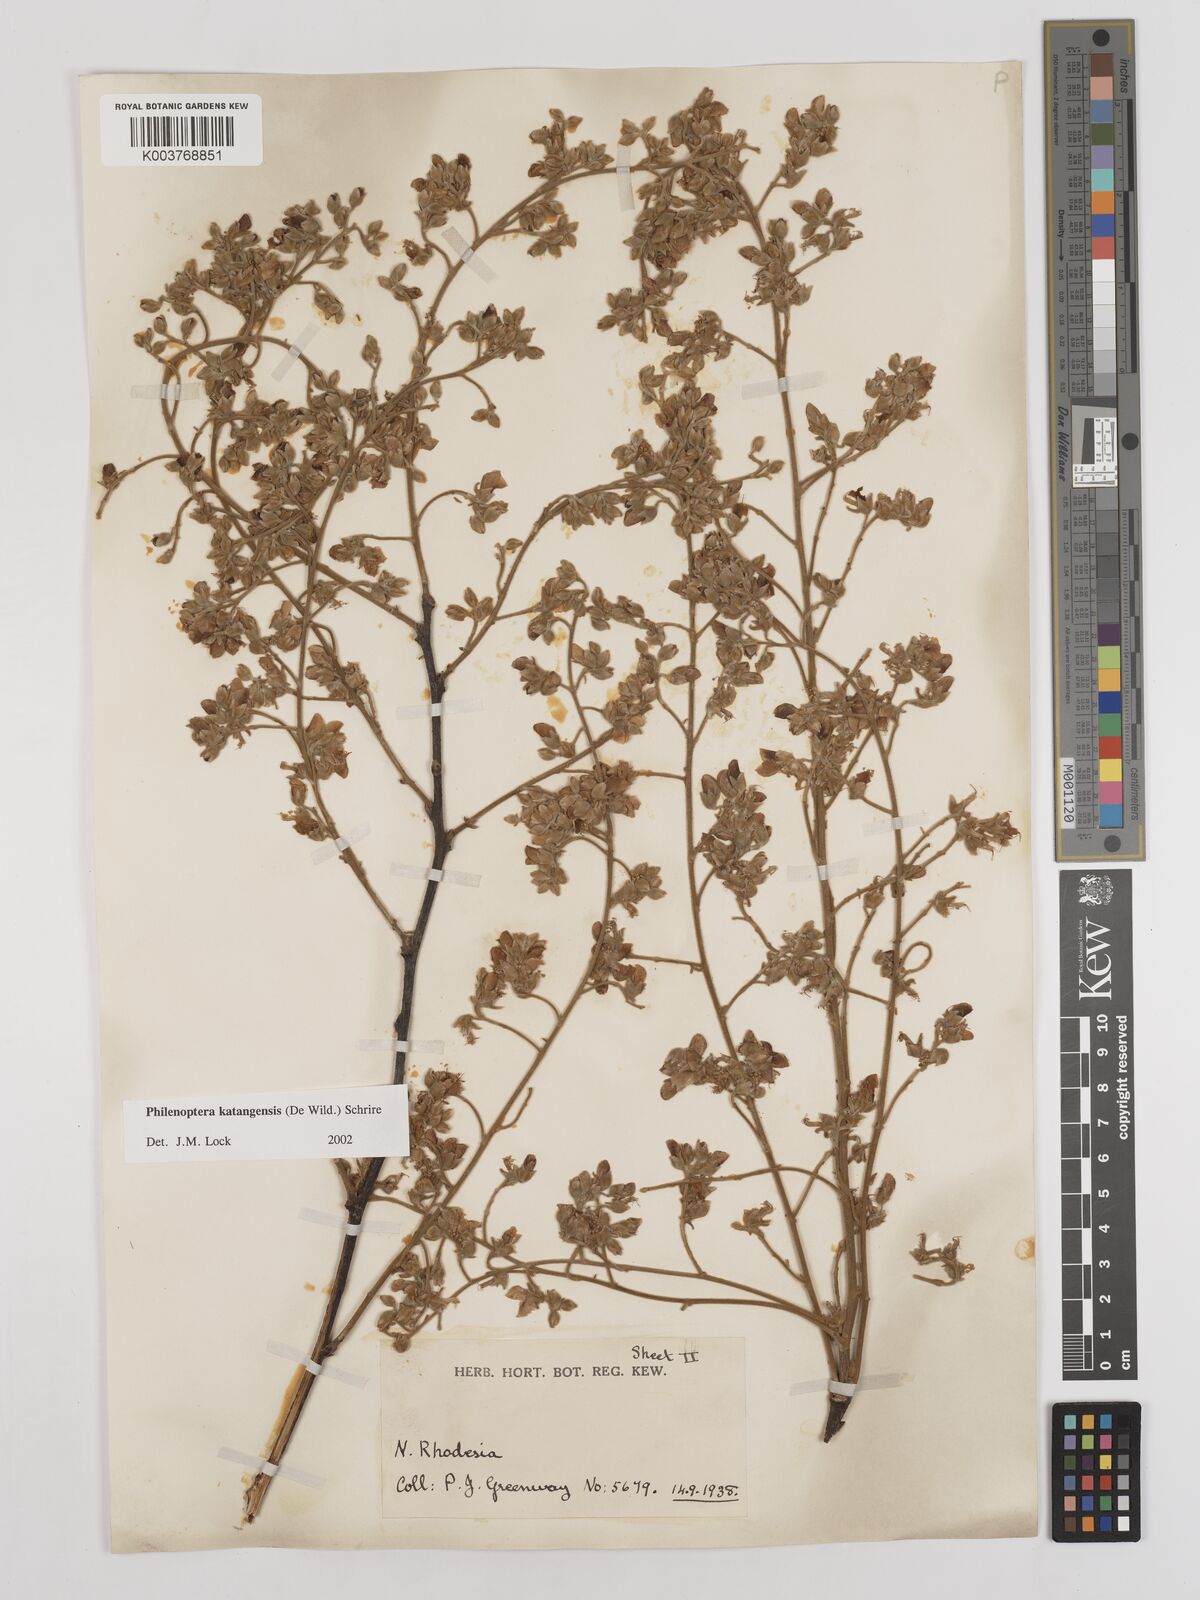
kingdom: Plantae
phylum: Tracheophyta
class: Magnoliopsida
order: Fabales
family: Fabaceae
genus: Philenoptera
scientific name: Philenoptera katangensis
